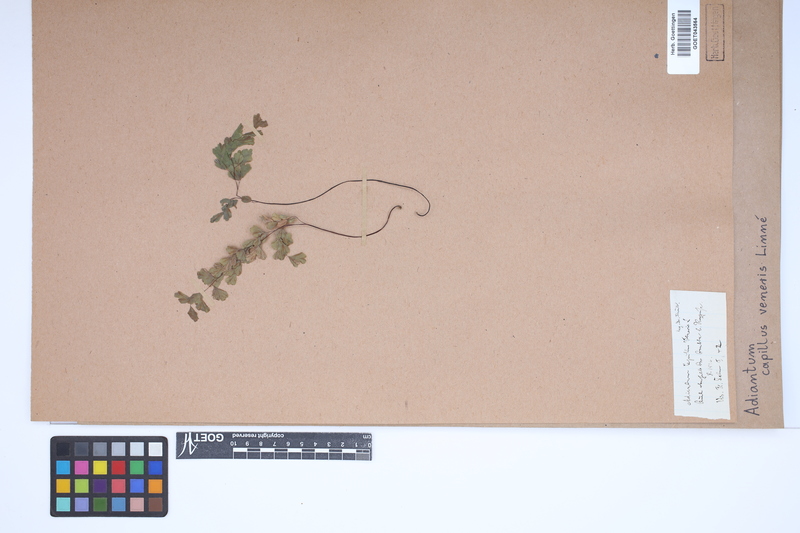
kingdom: Plantae
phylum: Tracheophyta
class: Polypodiopsida
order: Polypodiales
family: Pteridaceae
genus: Adiantum
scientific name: Adiantum capillus-veneris
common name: Maidenhair fern
